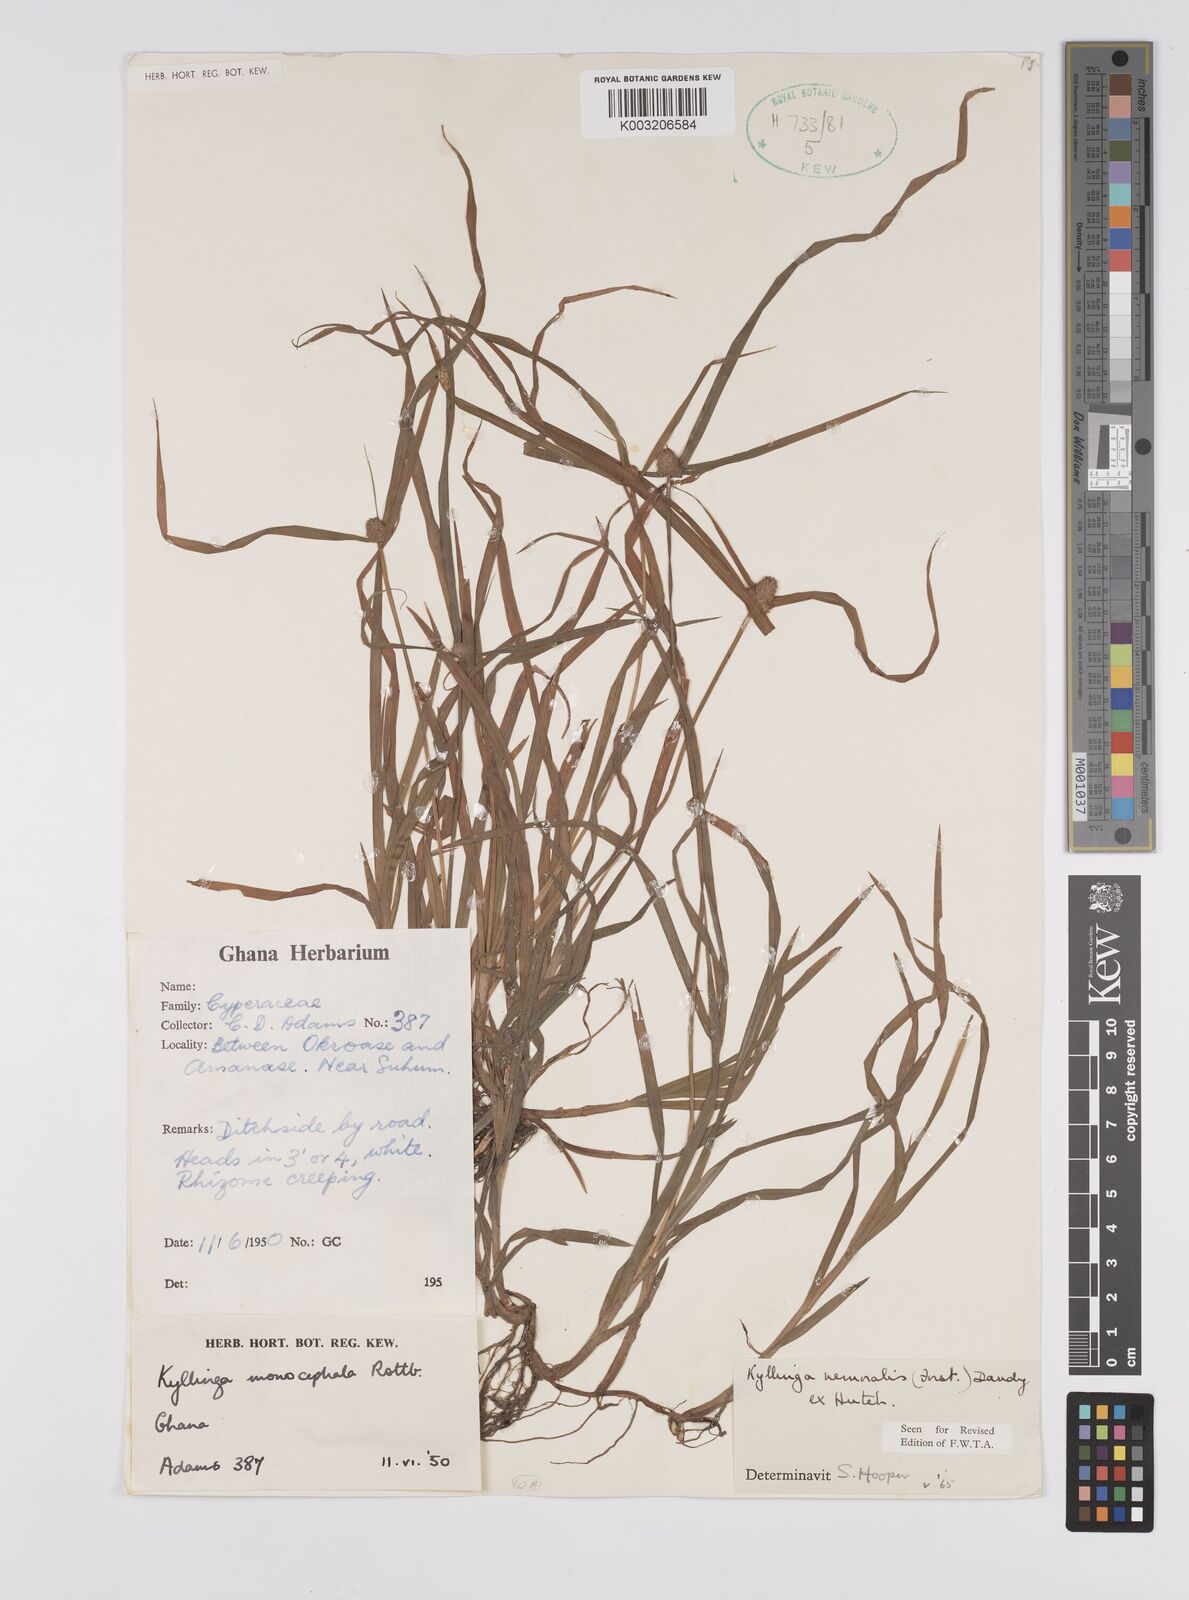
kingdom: Plantae
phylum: Tracheophyta
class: Liliopsida
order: Poales
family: Cyperaceae
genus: Cyperus
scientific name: Cyperus nemoralis
